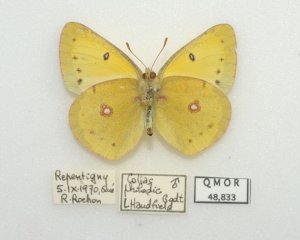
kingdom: Animalia
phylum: Arthropoda
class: Insecta
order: Lepidoptera
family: Pieridae
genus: Colias
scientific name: Colias philodice
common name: Clouded Sulphur
